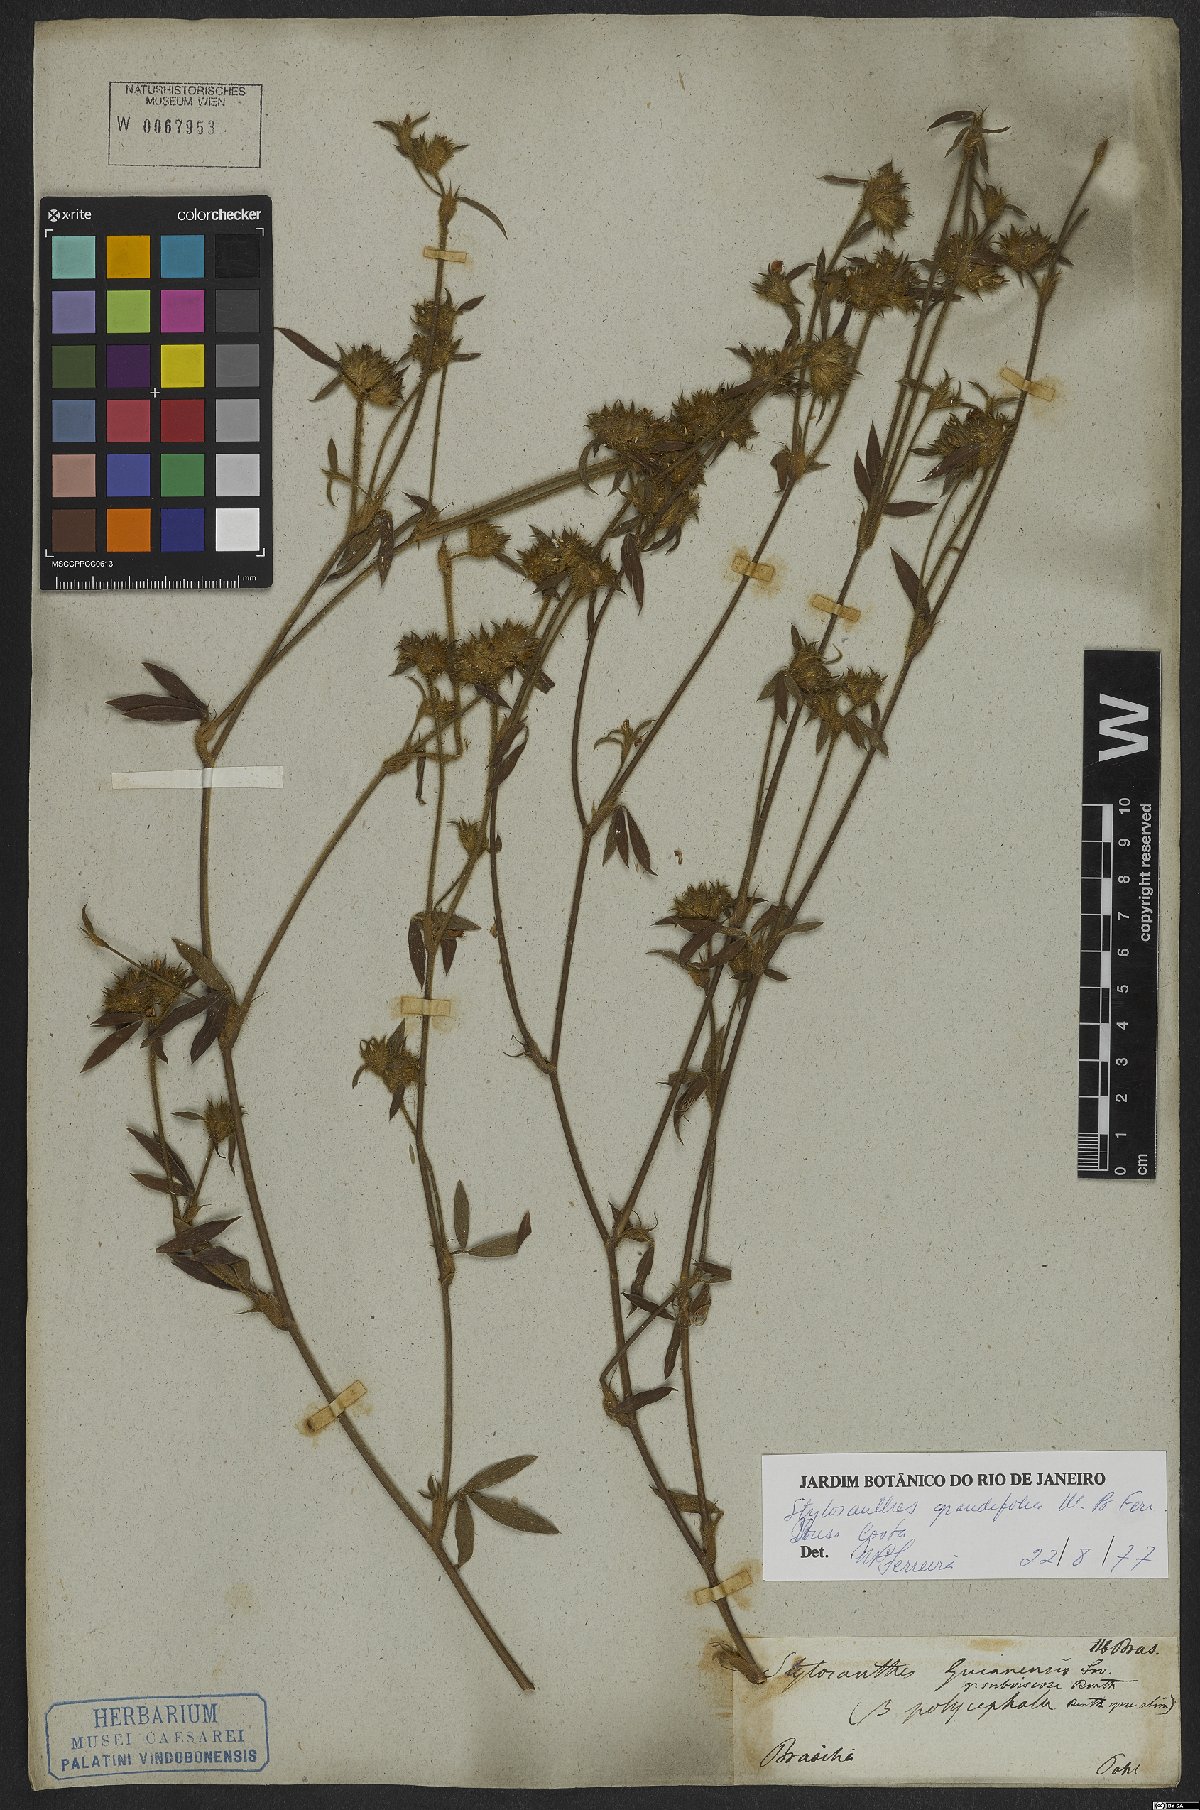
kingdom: Plantae
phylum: Tracheophyta
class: Magnoliopsida
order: Fabales
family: Fabaceae
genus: Stylosanthes
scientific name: Stylosanthes guianensis
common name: Pencil flower
